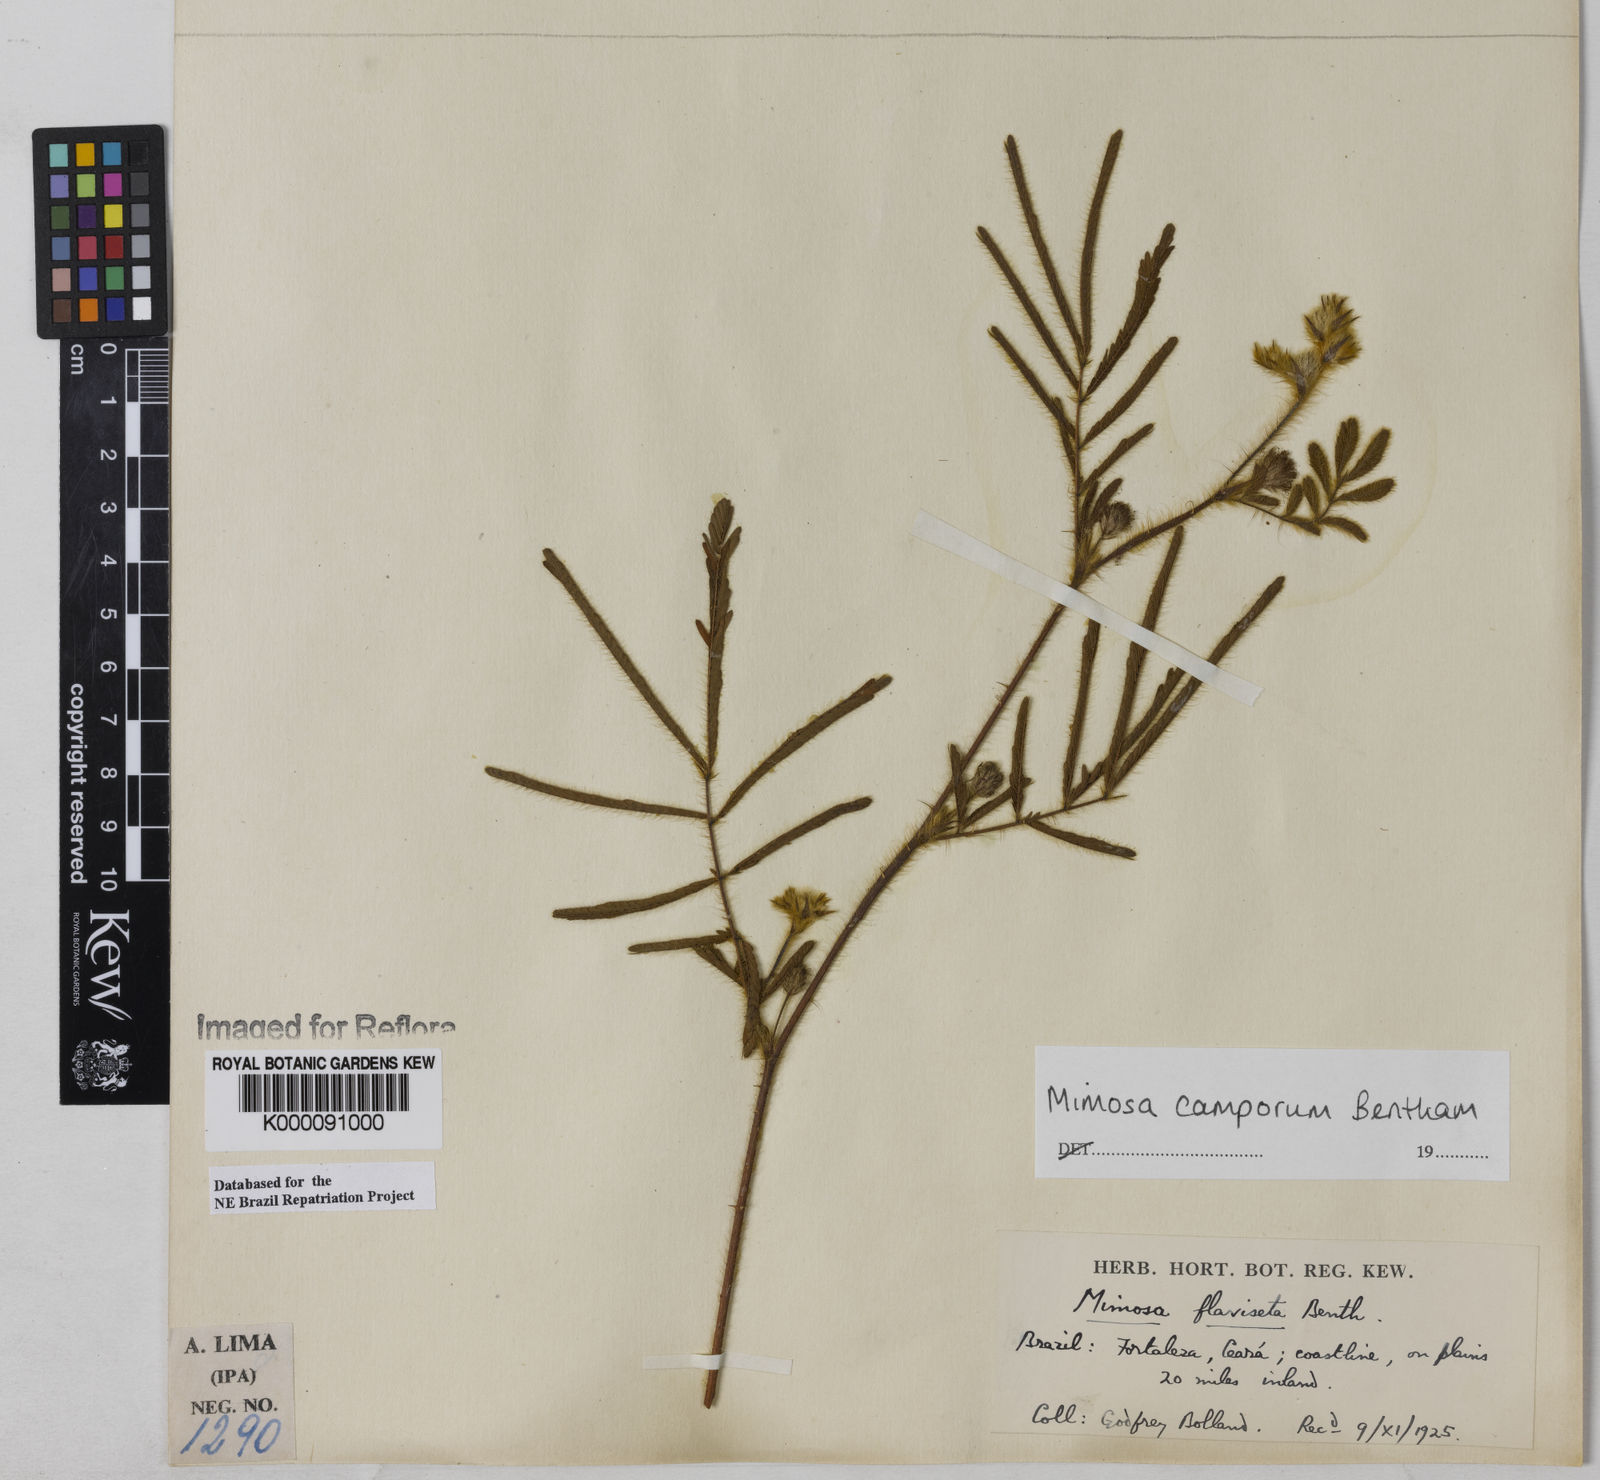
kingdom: Plantae
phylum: Tracheophyta
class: Magnoliopsida
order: Fabales
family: Fabaceae
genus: Mimosa
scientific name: Mimosa camporum
